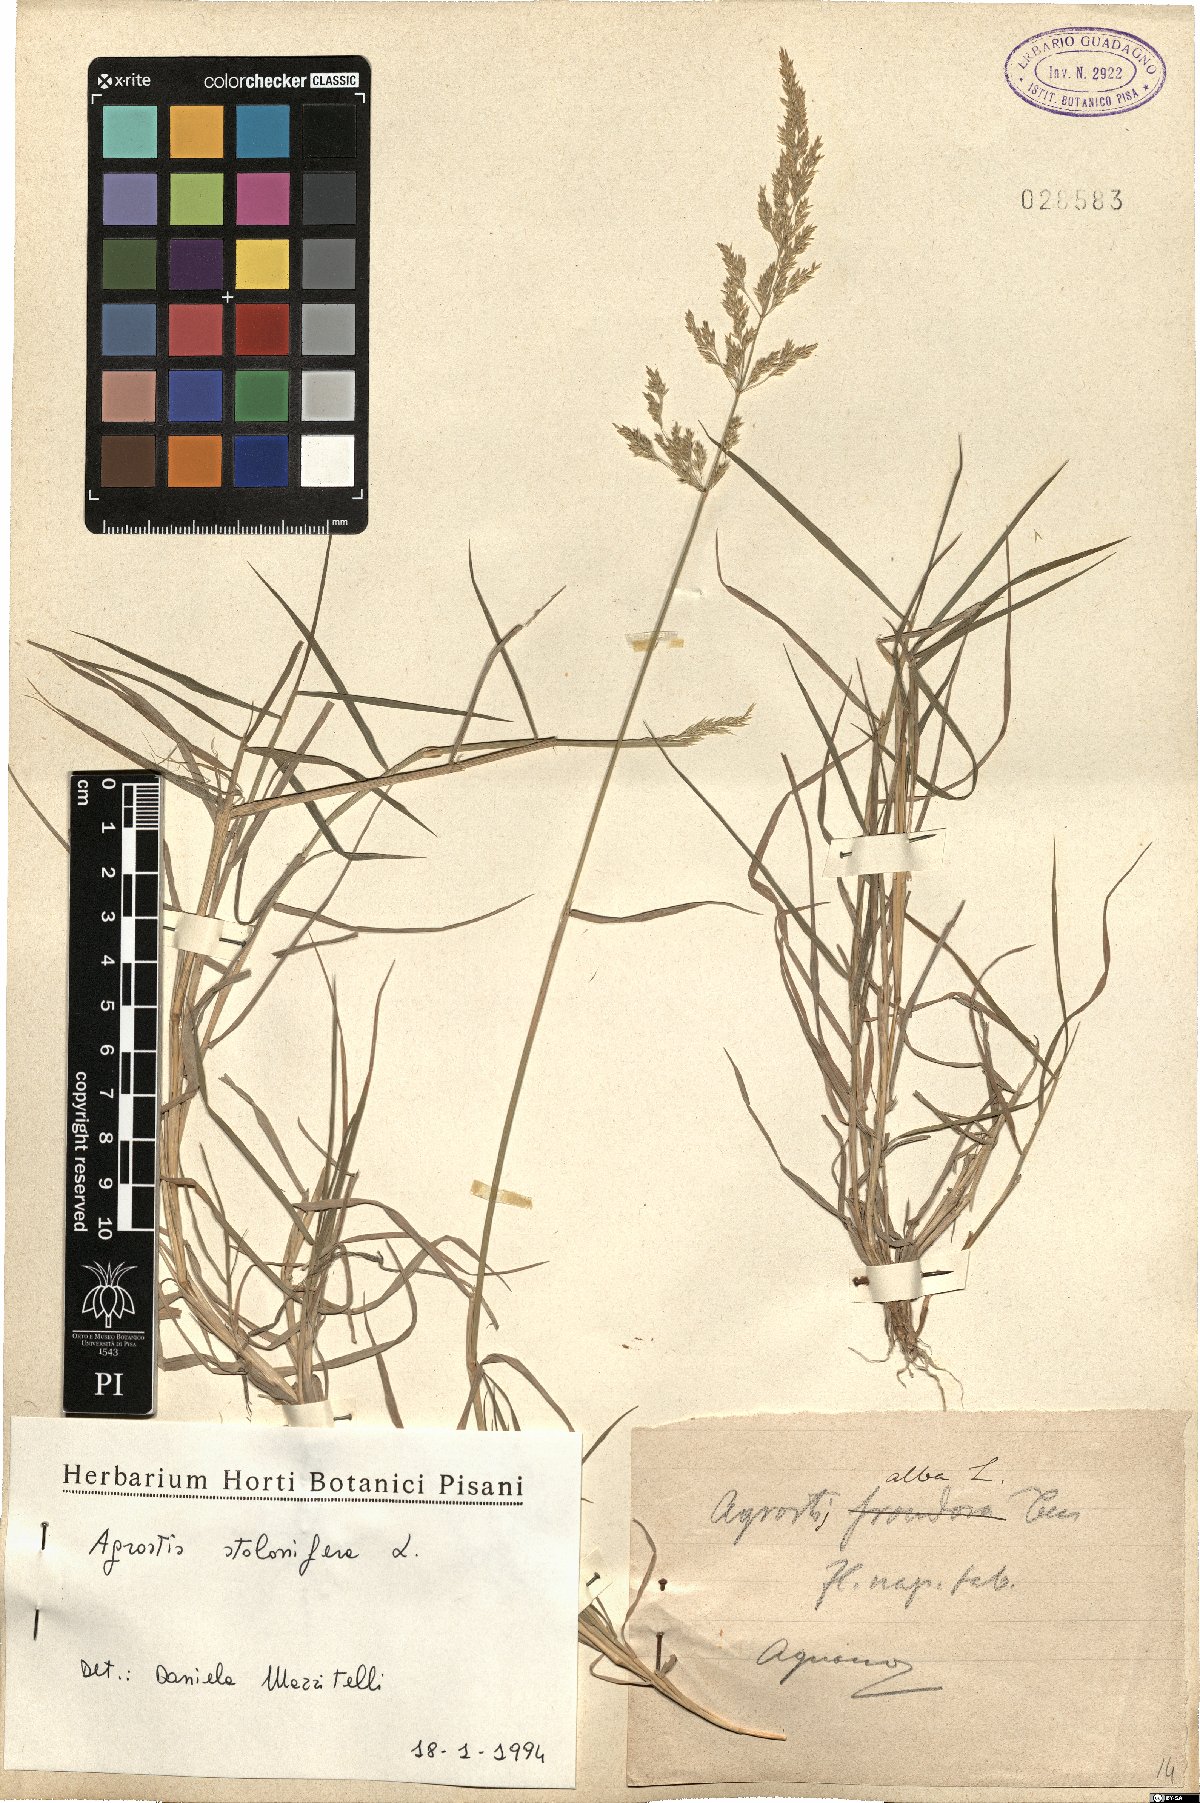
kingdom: Plantae
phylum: Tracheophyta
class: Liliopsida
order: Poales
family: Poaceae
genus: Agrostis
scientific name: Agrostis stolonifera
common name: Creeping bentgrass
